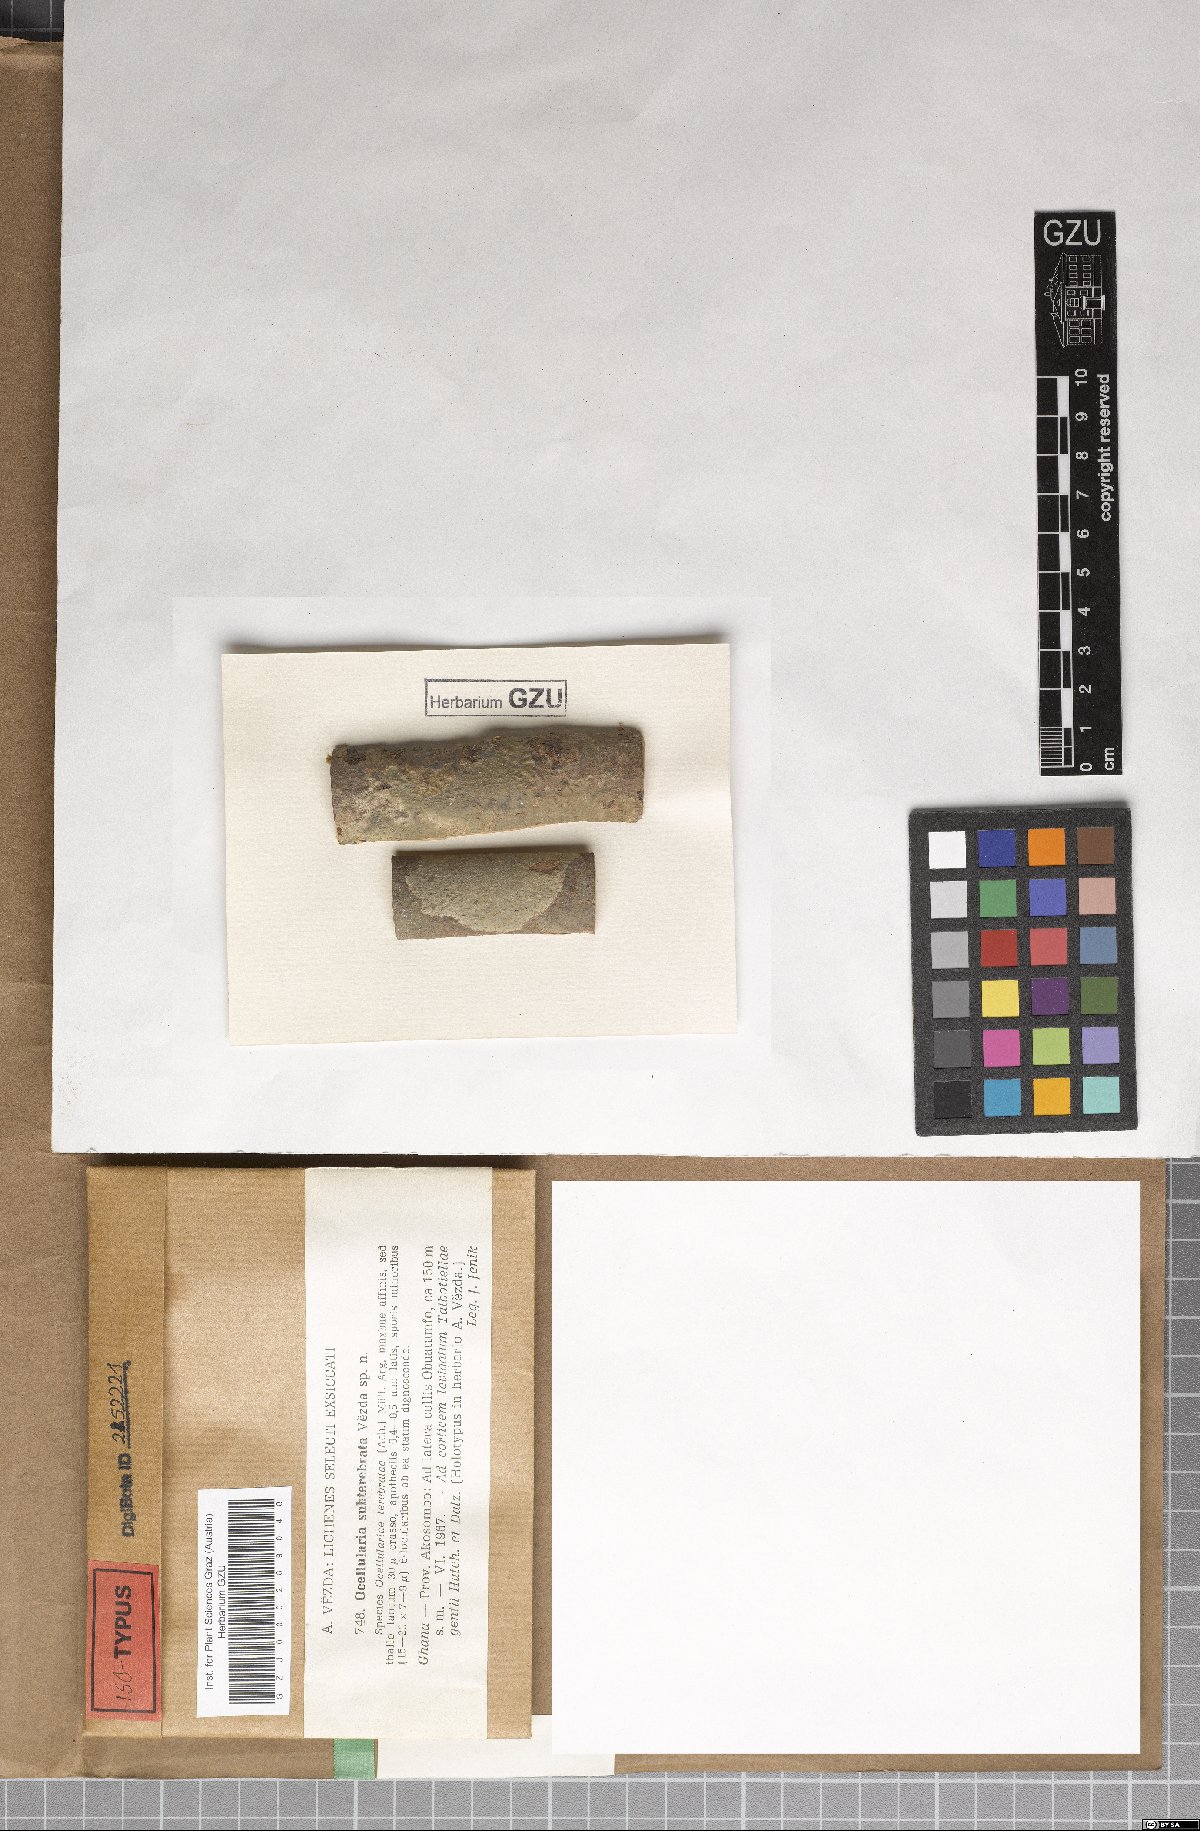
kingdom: Fungi
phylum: Ascomycota
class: Lecanoromycetes
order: Ostropales
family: Graphidaceae
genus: Ocellularia
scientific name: Ocellularia vezdana
